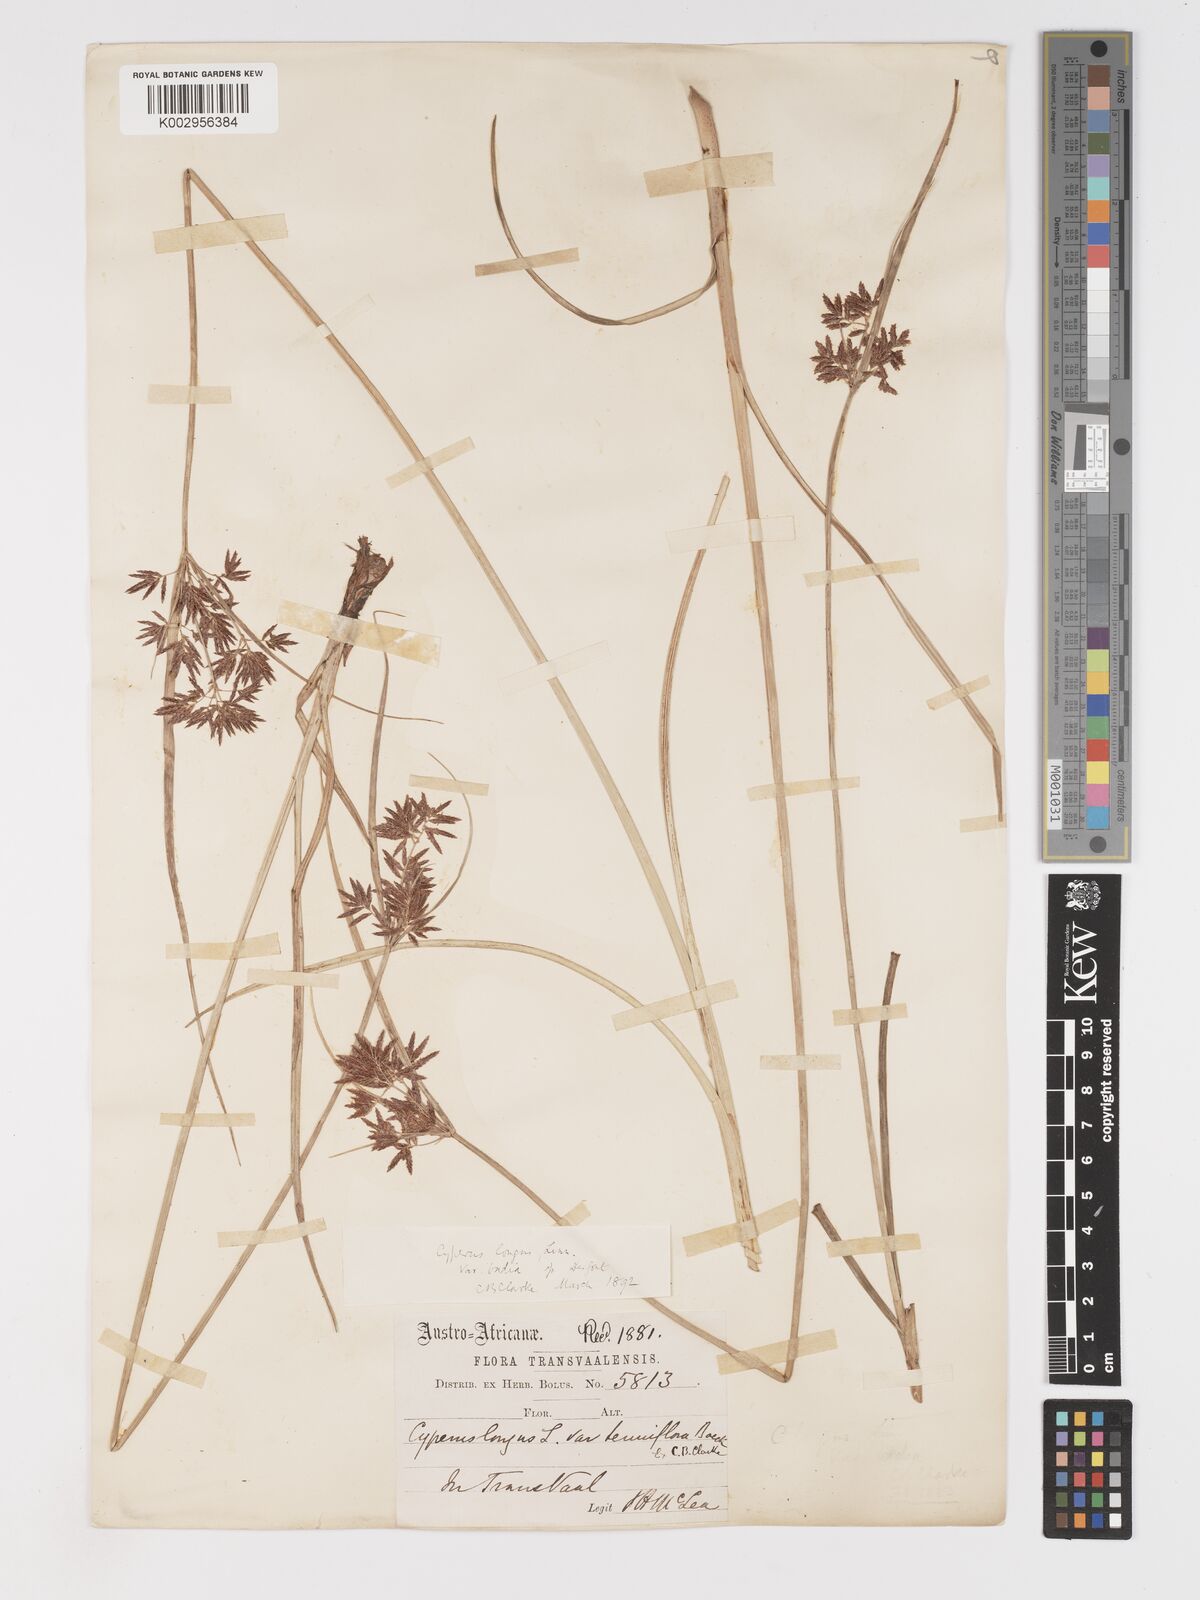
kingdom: Plantae
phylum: Tracheophyta
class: Liliopsida
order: Poales
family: Cyperaceae
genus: Cyperus
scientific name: Cyperus longus
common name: Galingale
